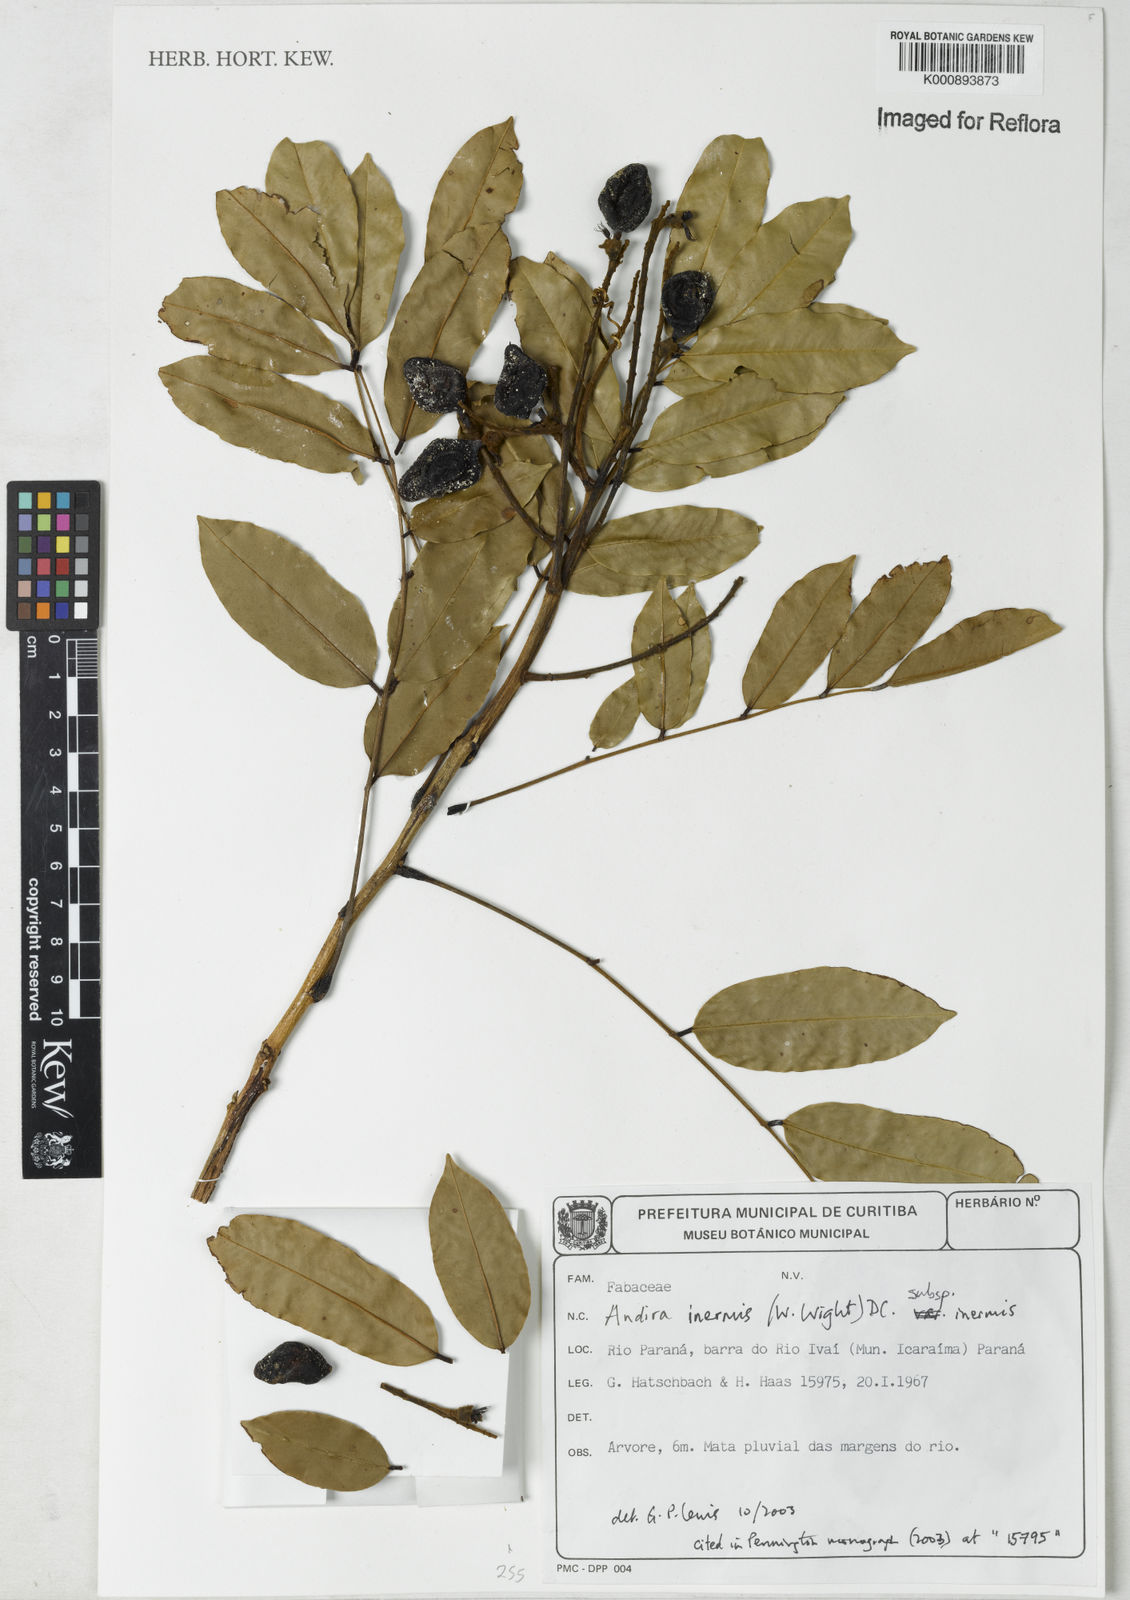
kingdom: Plantae
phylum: Tracheophyta
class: Magnoliopsida
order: Fabales
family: Fabaceae
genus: Andira
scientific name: Andira inermis
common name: Angelin
